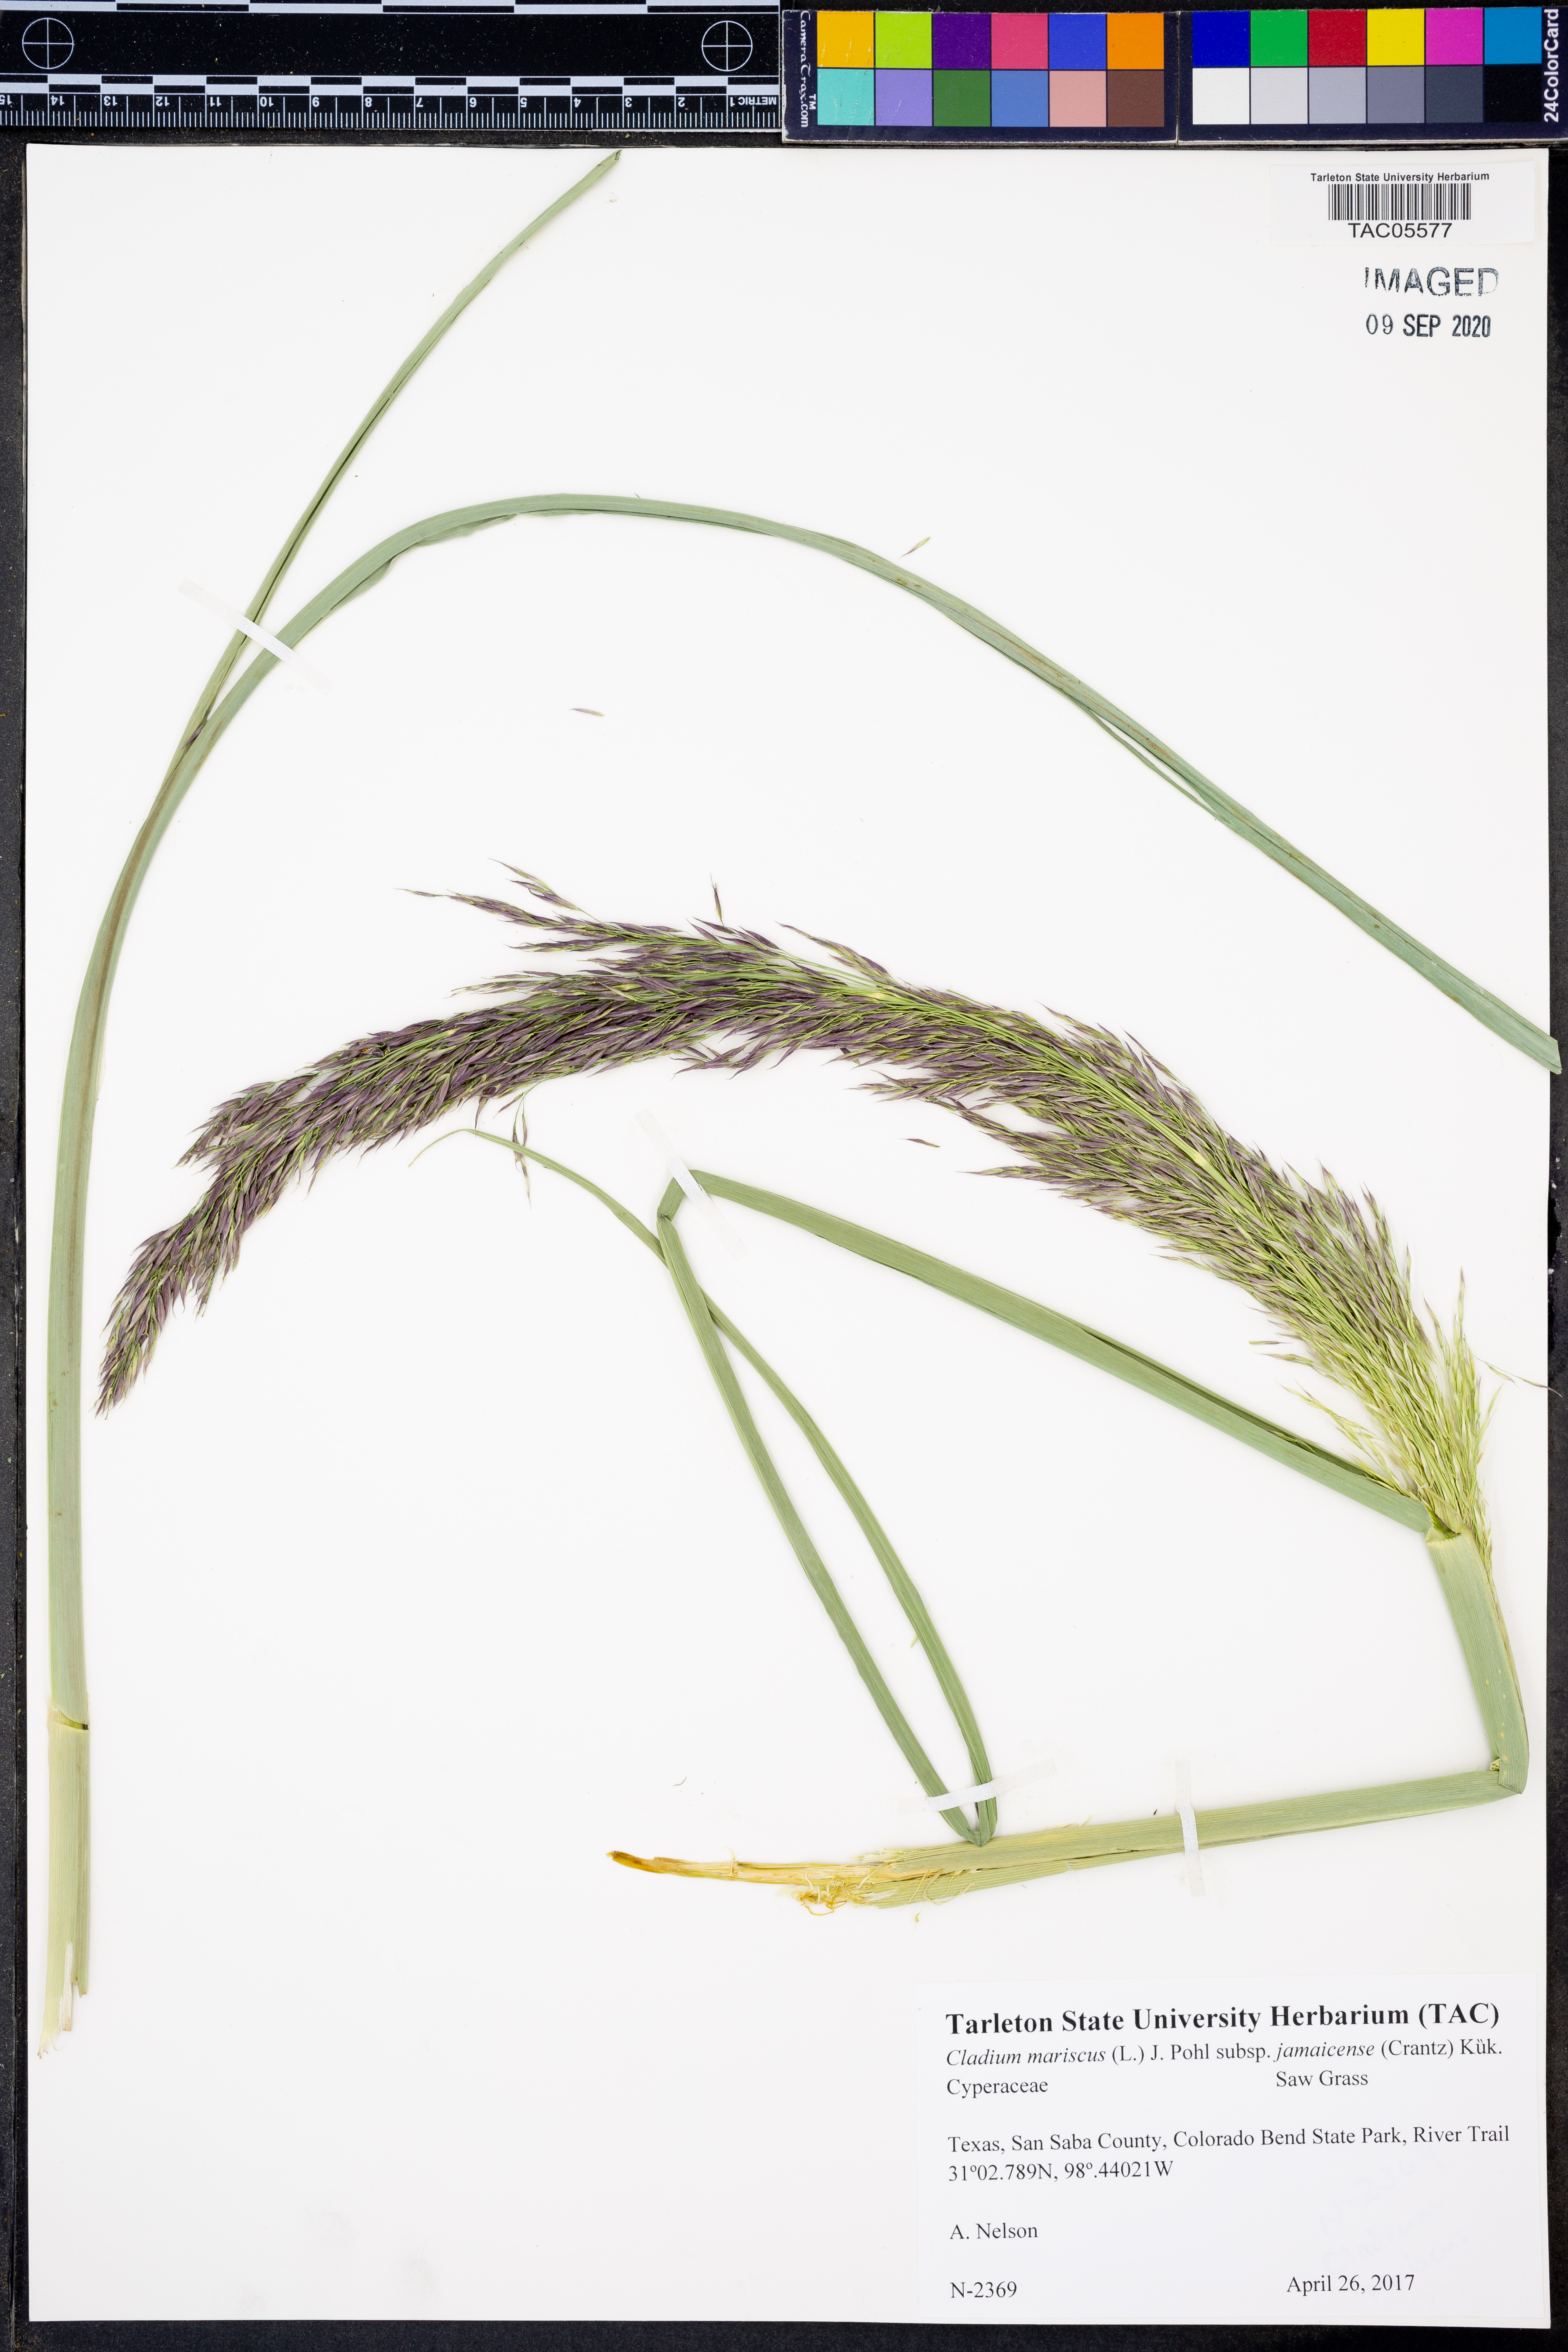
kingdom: Plantae
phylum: Tracheophyta
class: Liliopsida
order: Poales
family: Cyperaceae
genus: Cladium
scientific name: Cladium mariscus
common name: Great fen-sedge
